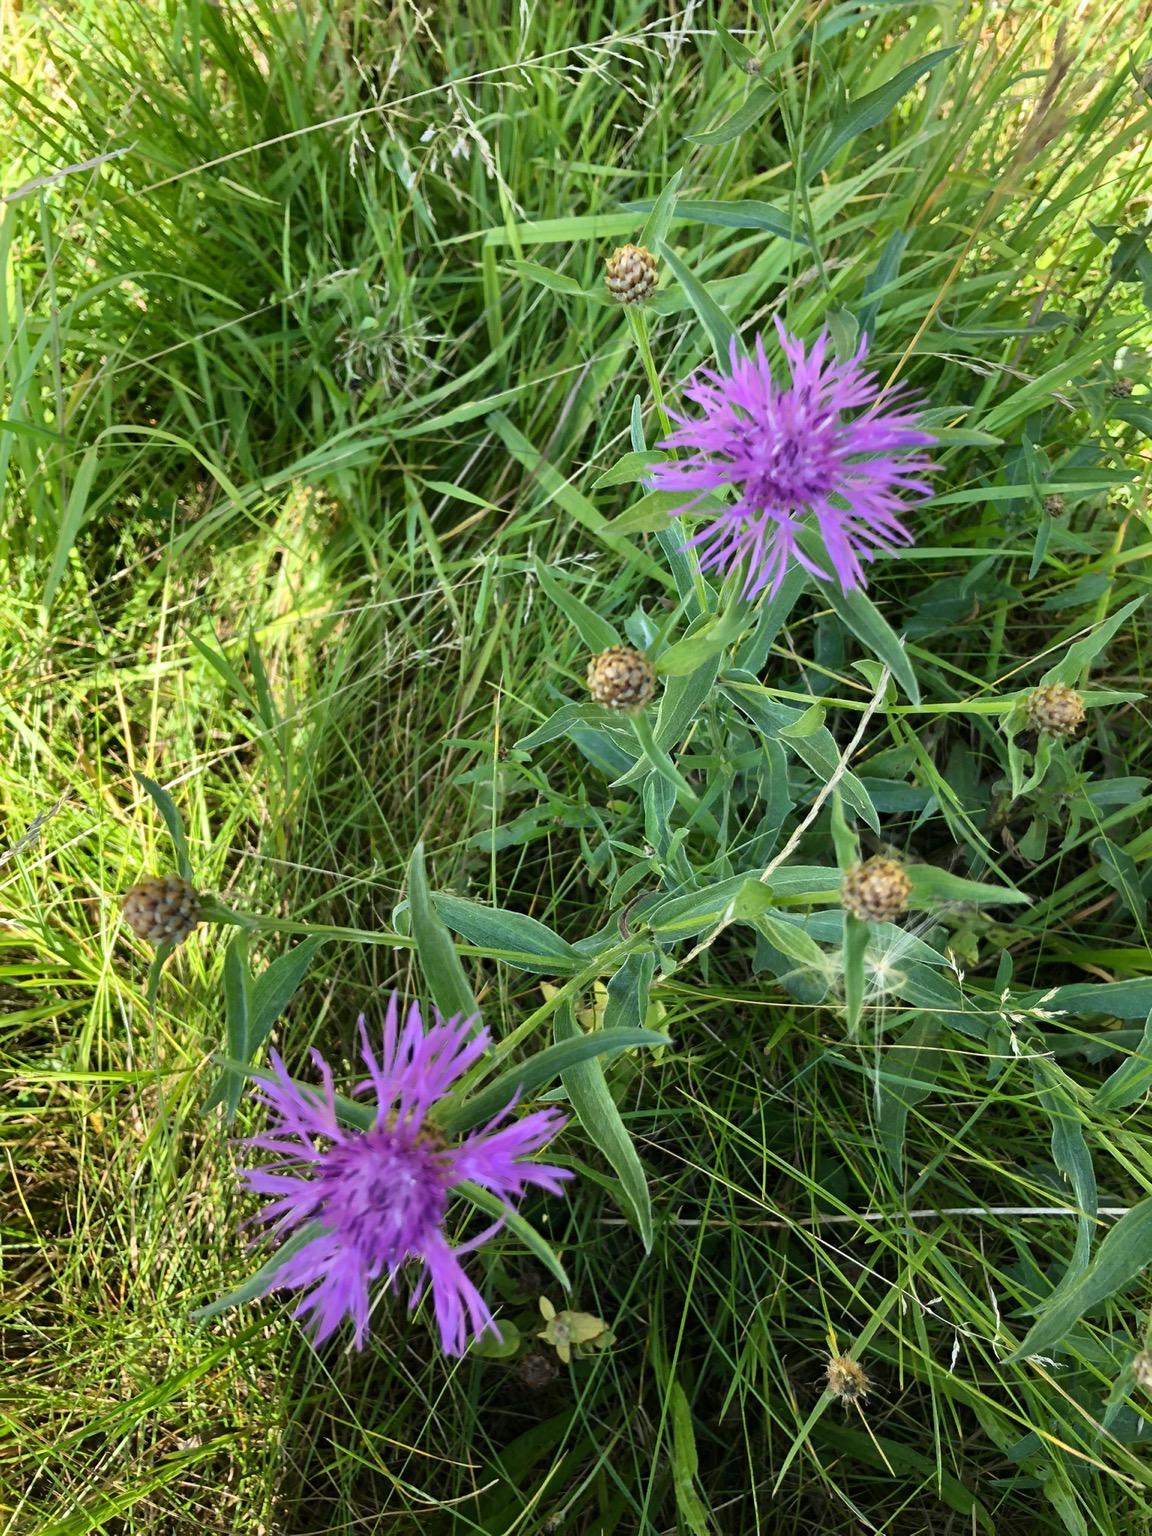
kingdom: Plantae
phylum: Tracheophyta
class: Magnoliopsida
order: Asterales
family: Asteraceae
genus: Centaurea
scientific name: Centaurea jacea
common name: Almindelig knopurt
